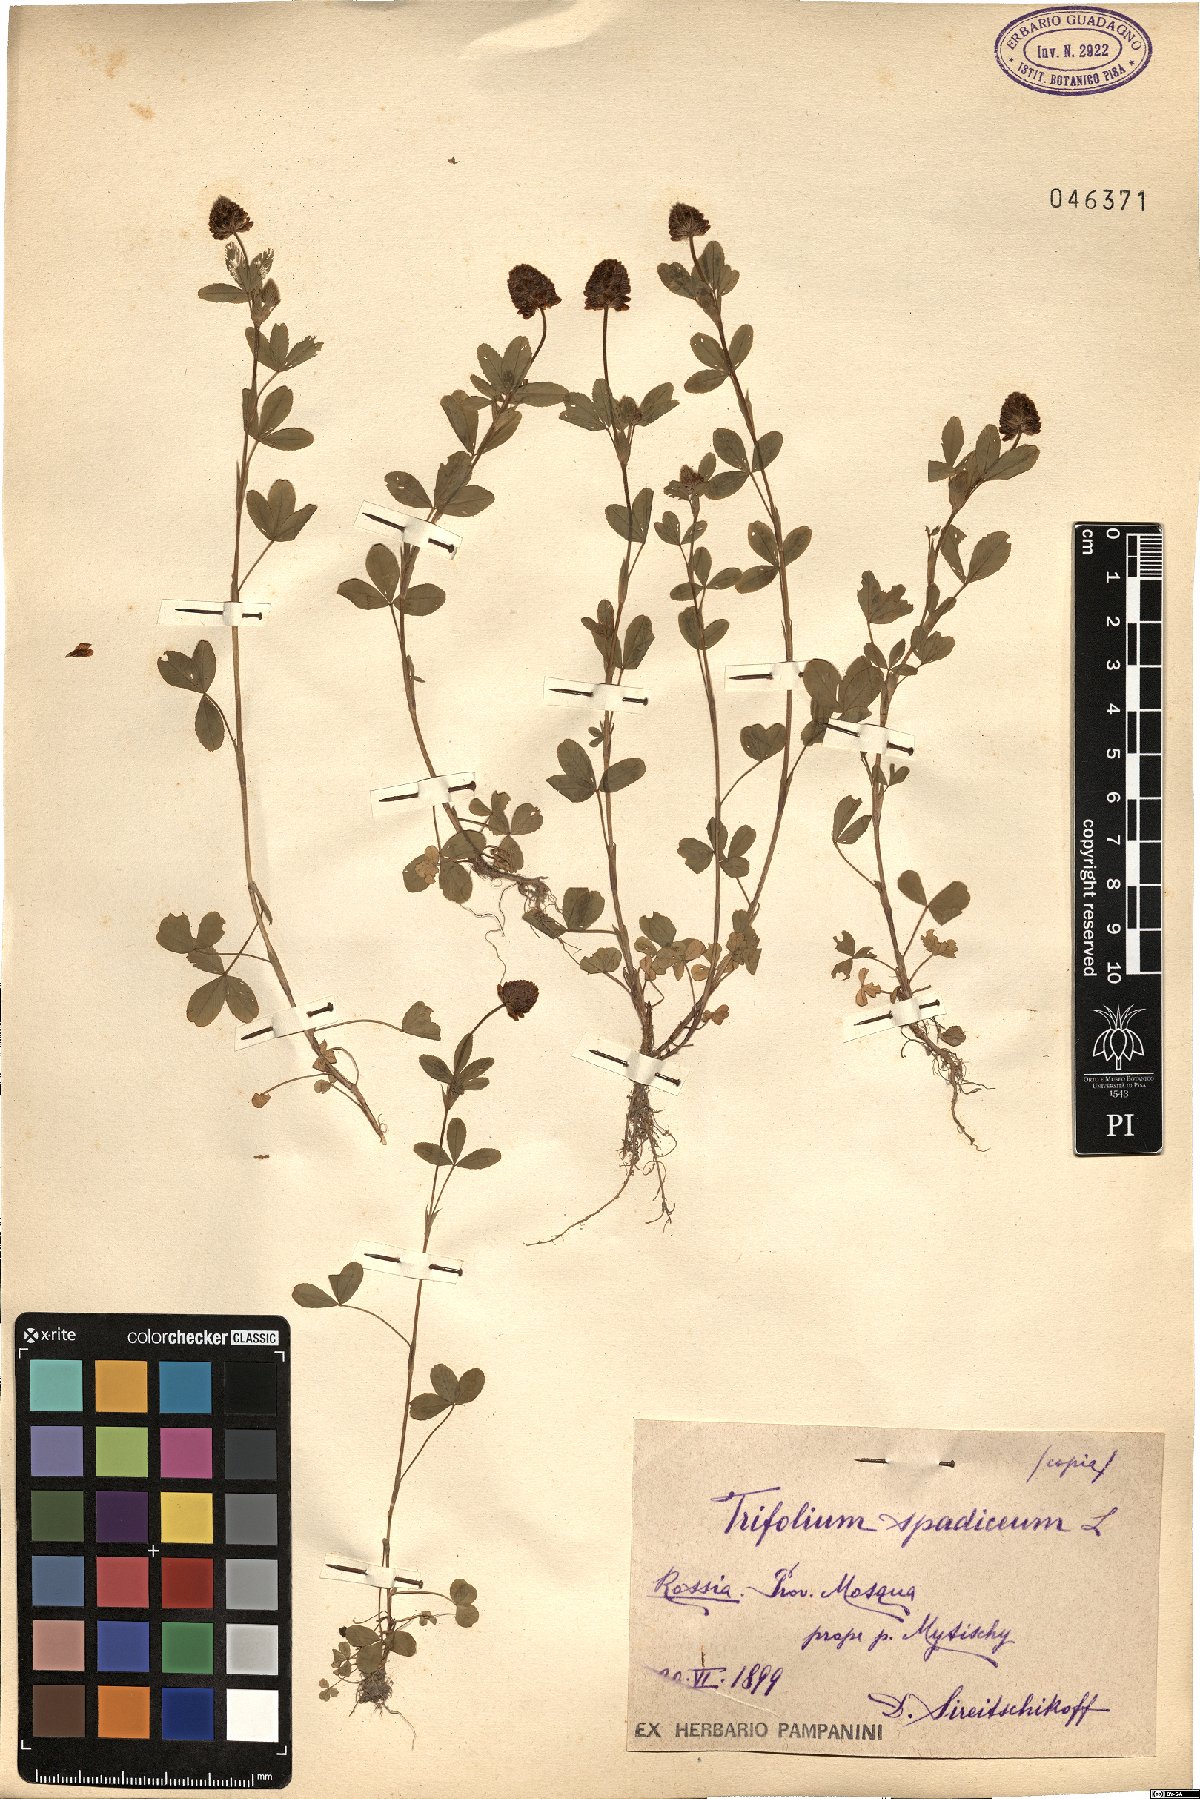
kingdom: Plantae
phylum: Tracheophyta
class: Magnoliopsida
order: Fabales
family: Fabaceae
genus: Trifolium
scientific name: Trifolium spadiceum
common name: Brown moor clover
